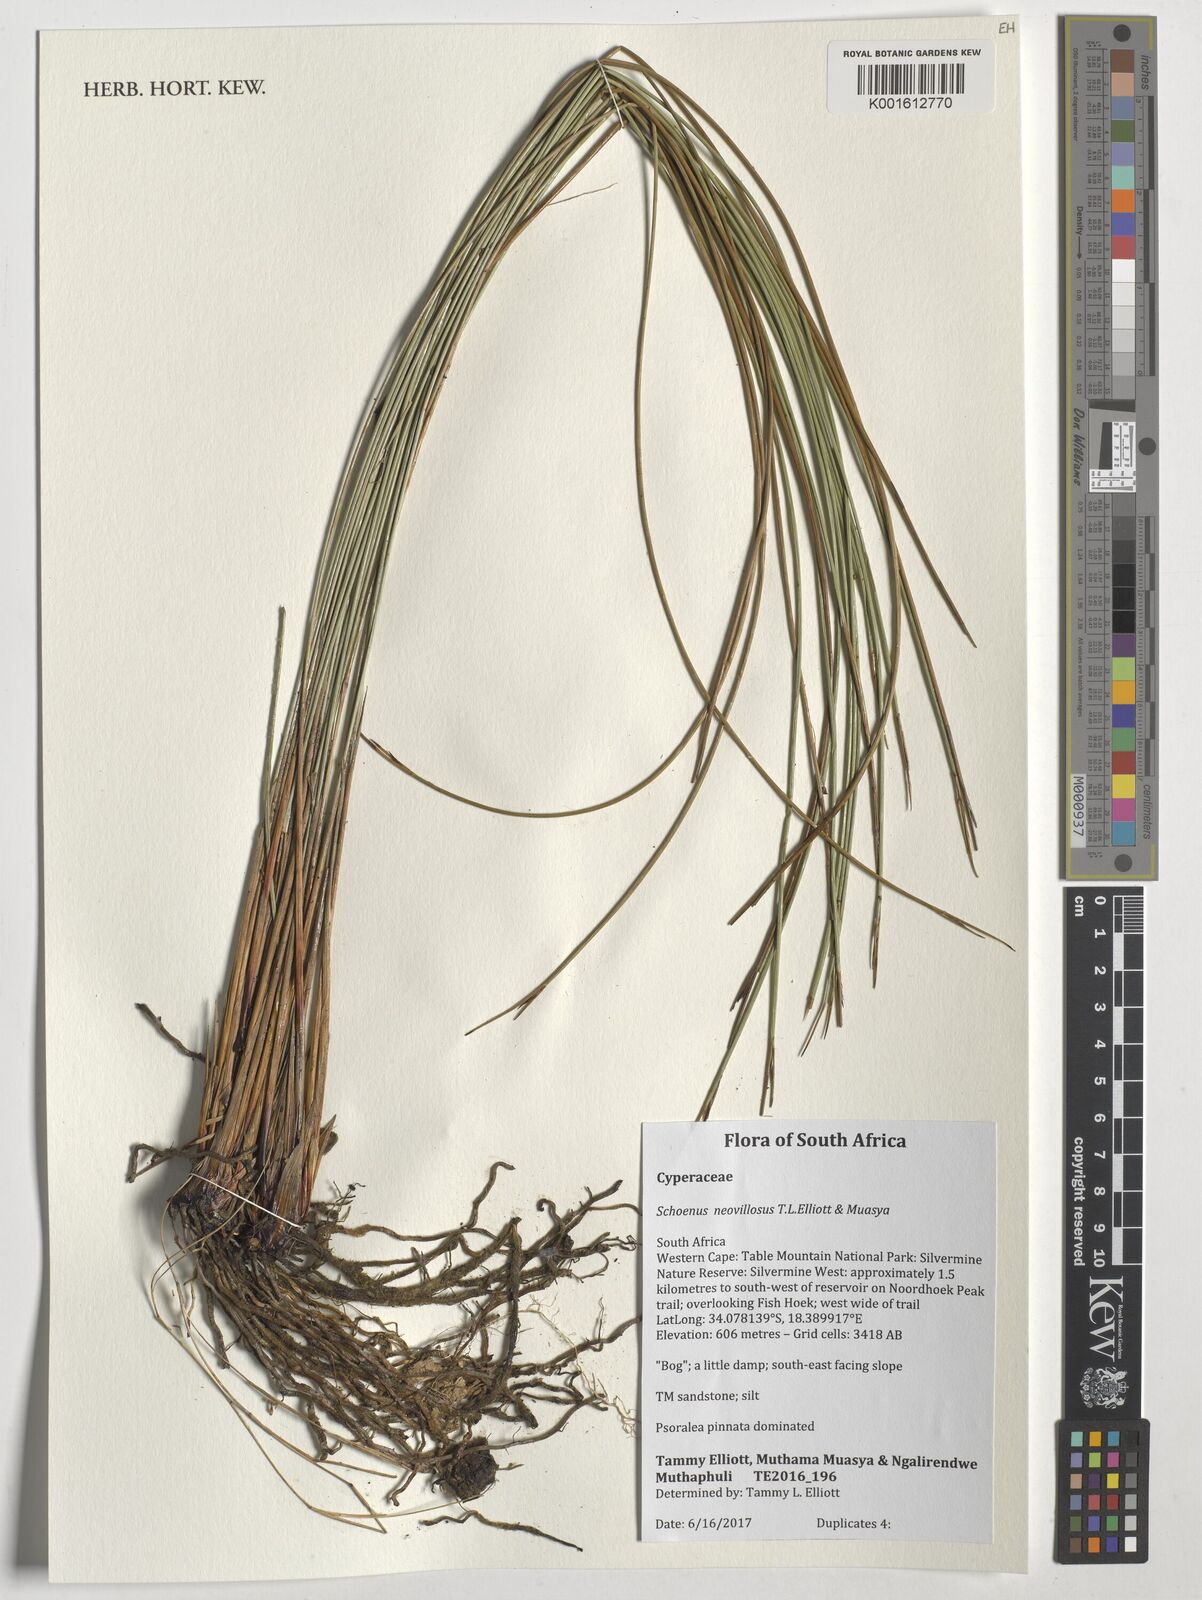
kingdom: Plantae
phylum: Tracheophyta
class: Liliopsida
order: Poales
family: Cyperaceae
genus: Schoenus
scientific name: Schoenus neovillosus
